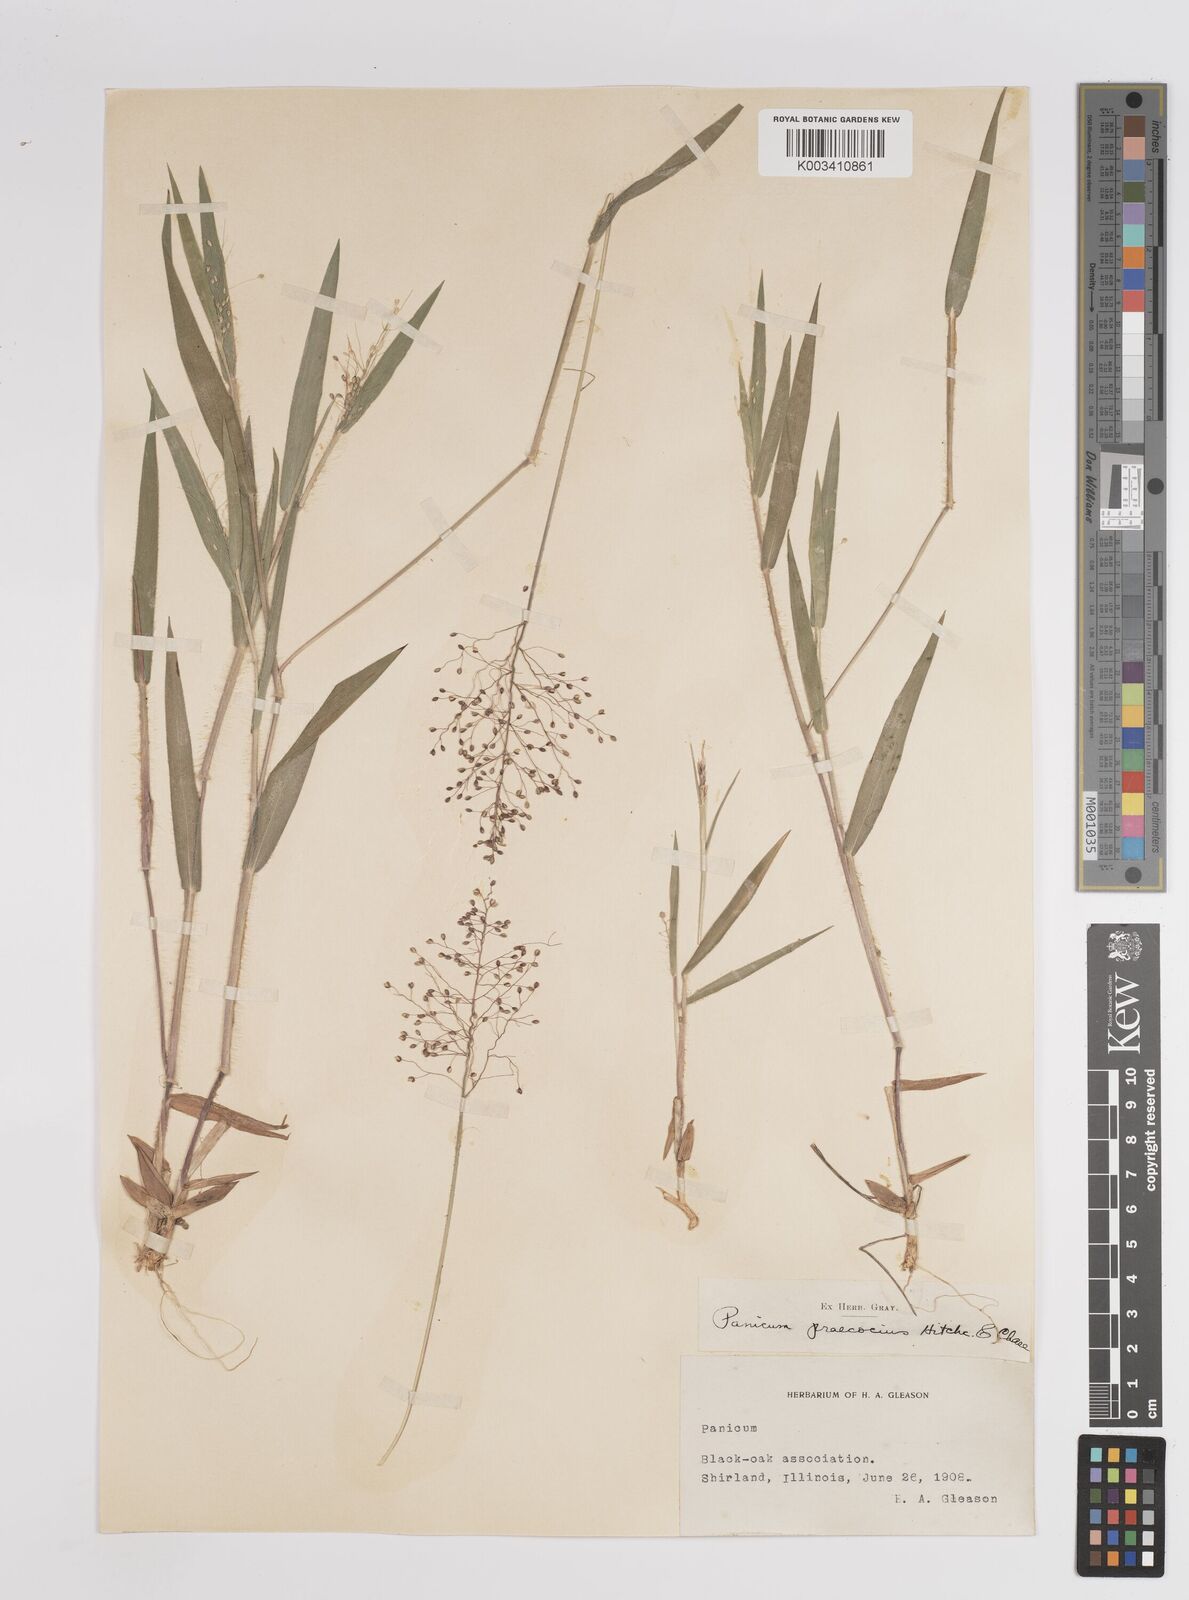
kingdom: Plantae
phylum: Tracheophyta
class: Liliopsida
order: Poales
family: Poaceae
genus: Dichanthelium
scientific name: Dichanthelium praecocius
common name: Early-branching panicgrass
